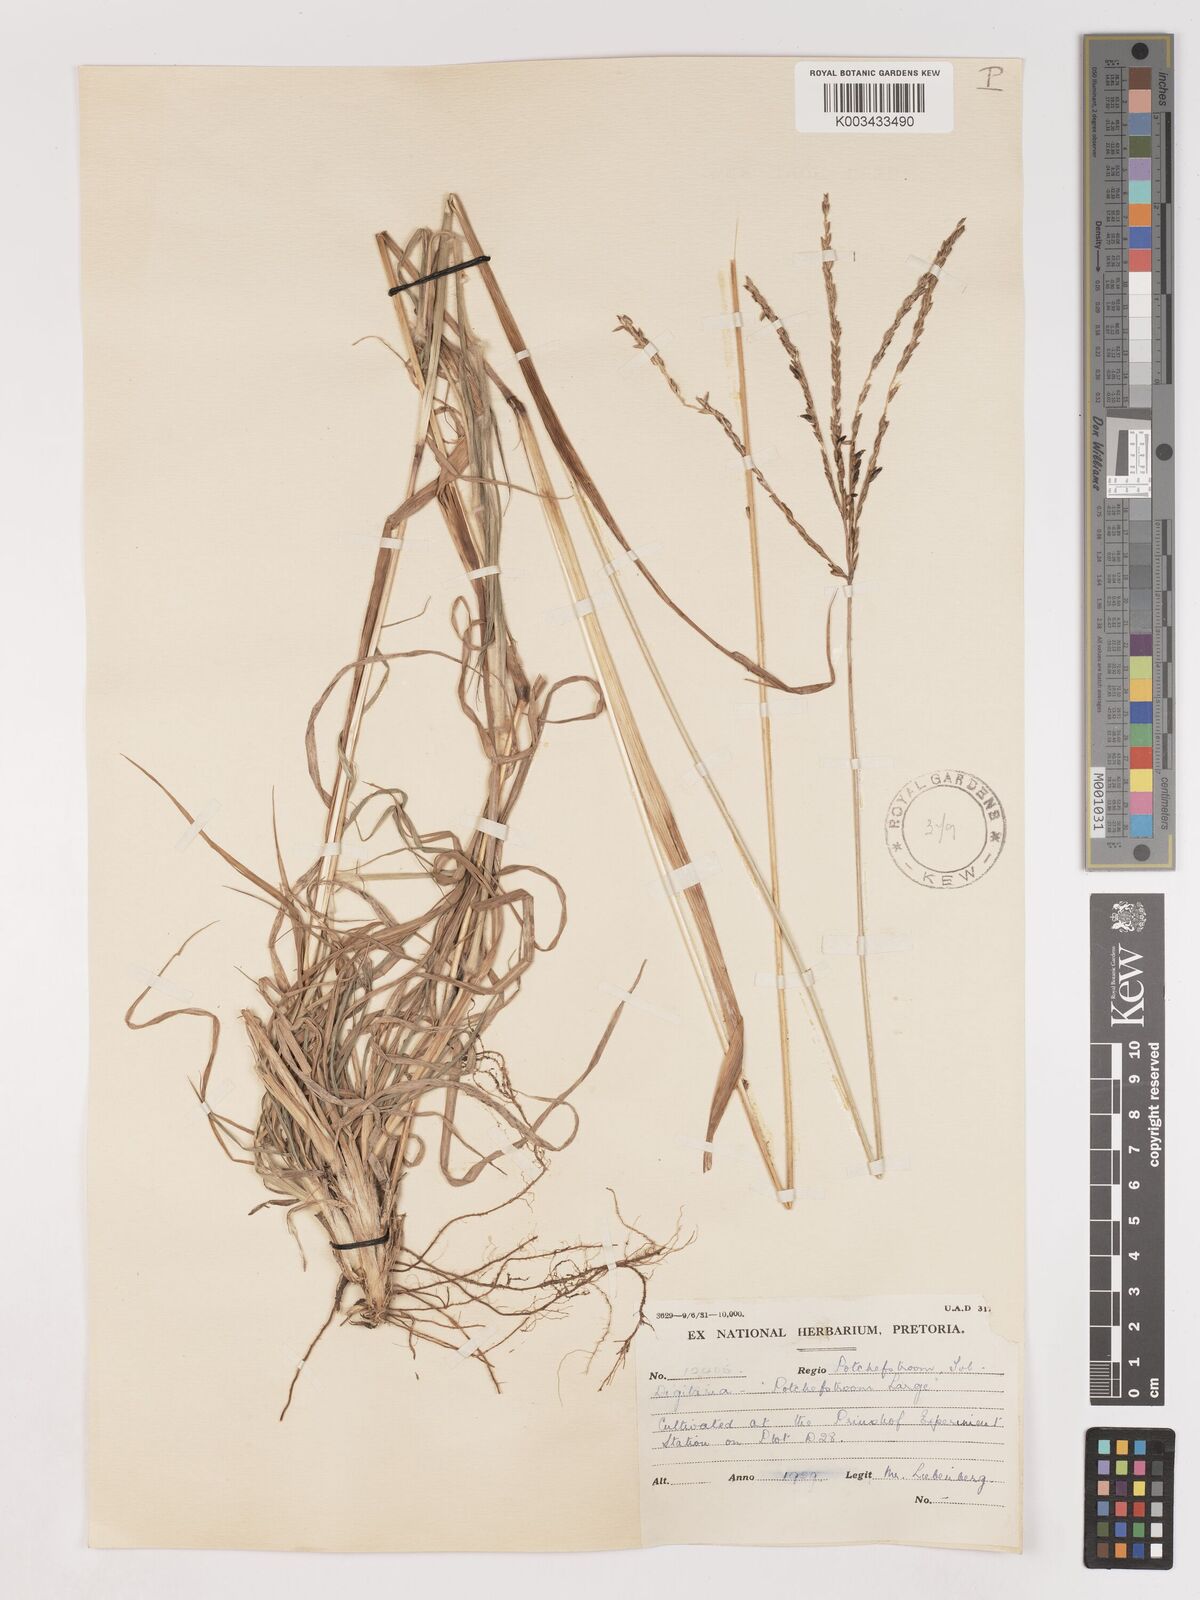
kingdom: Plantae
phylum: Tracheophyta
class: Liliopsida
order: Poales
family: Poaceae
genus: Digitaria
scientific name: Digitaria eriantha
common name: Digitgrass
